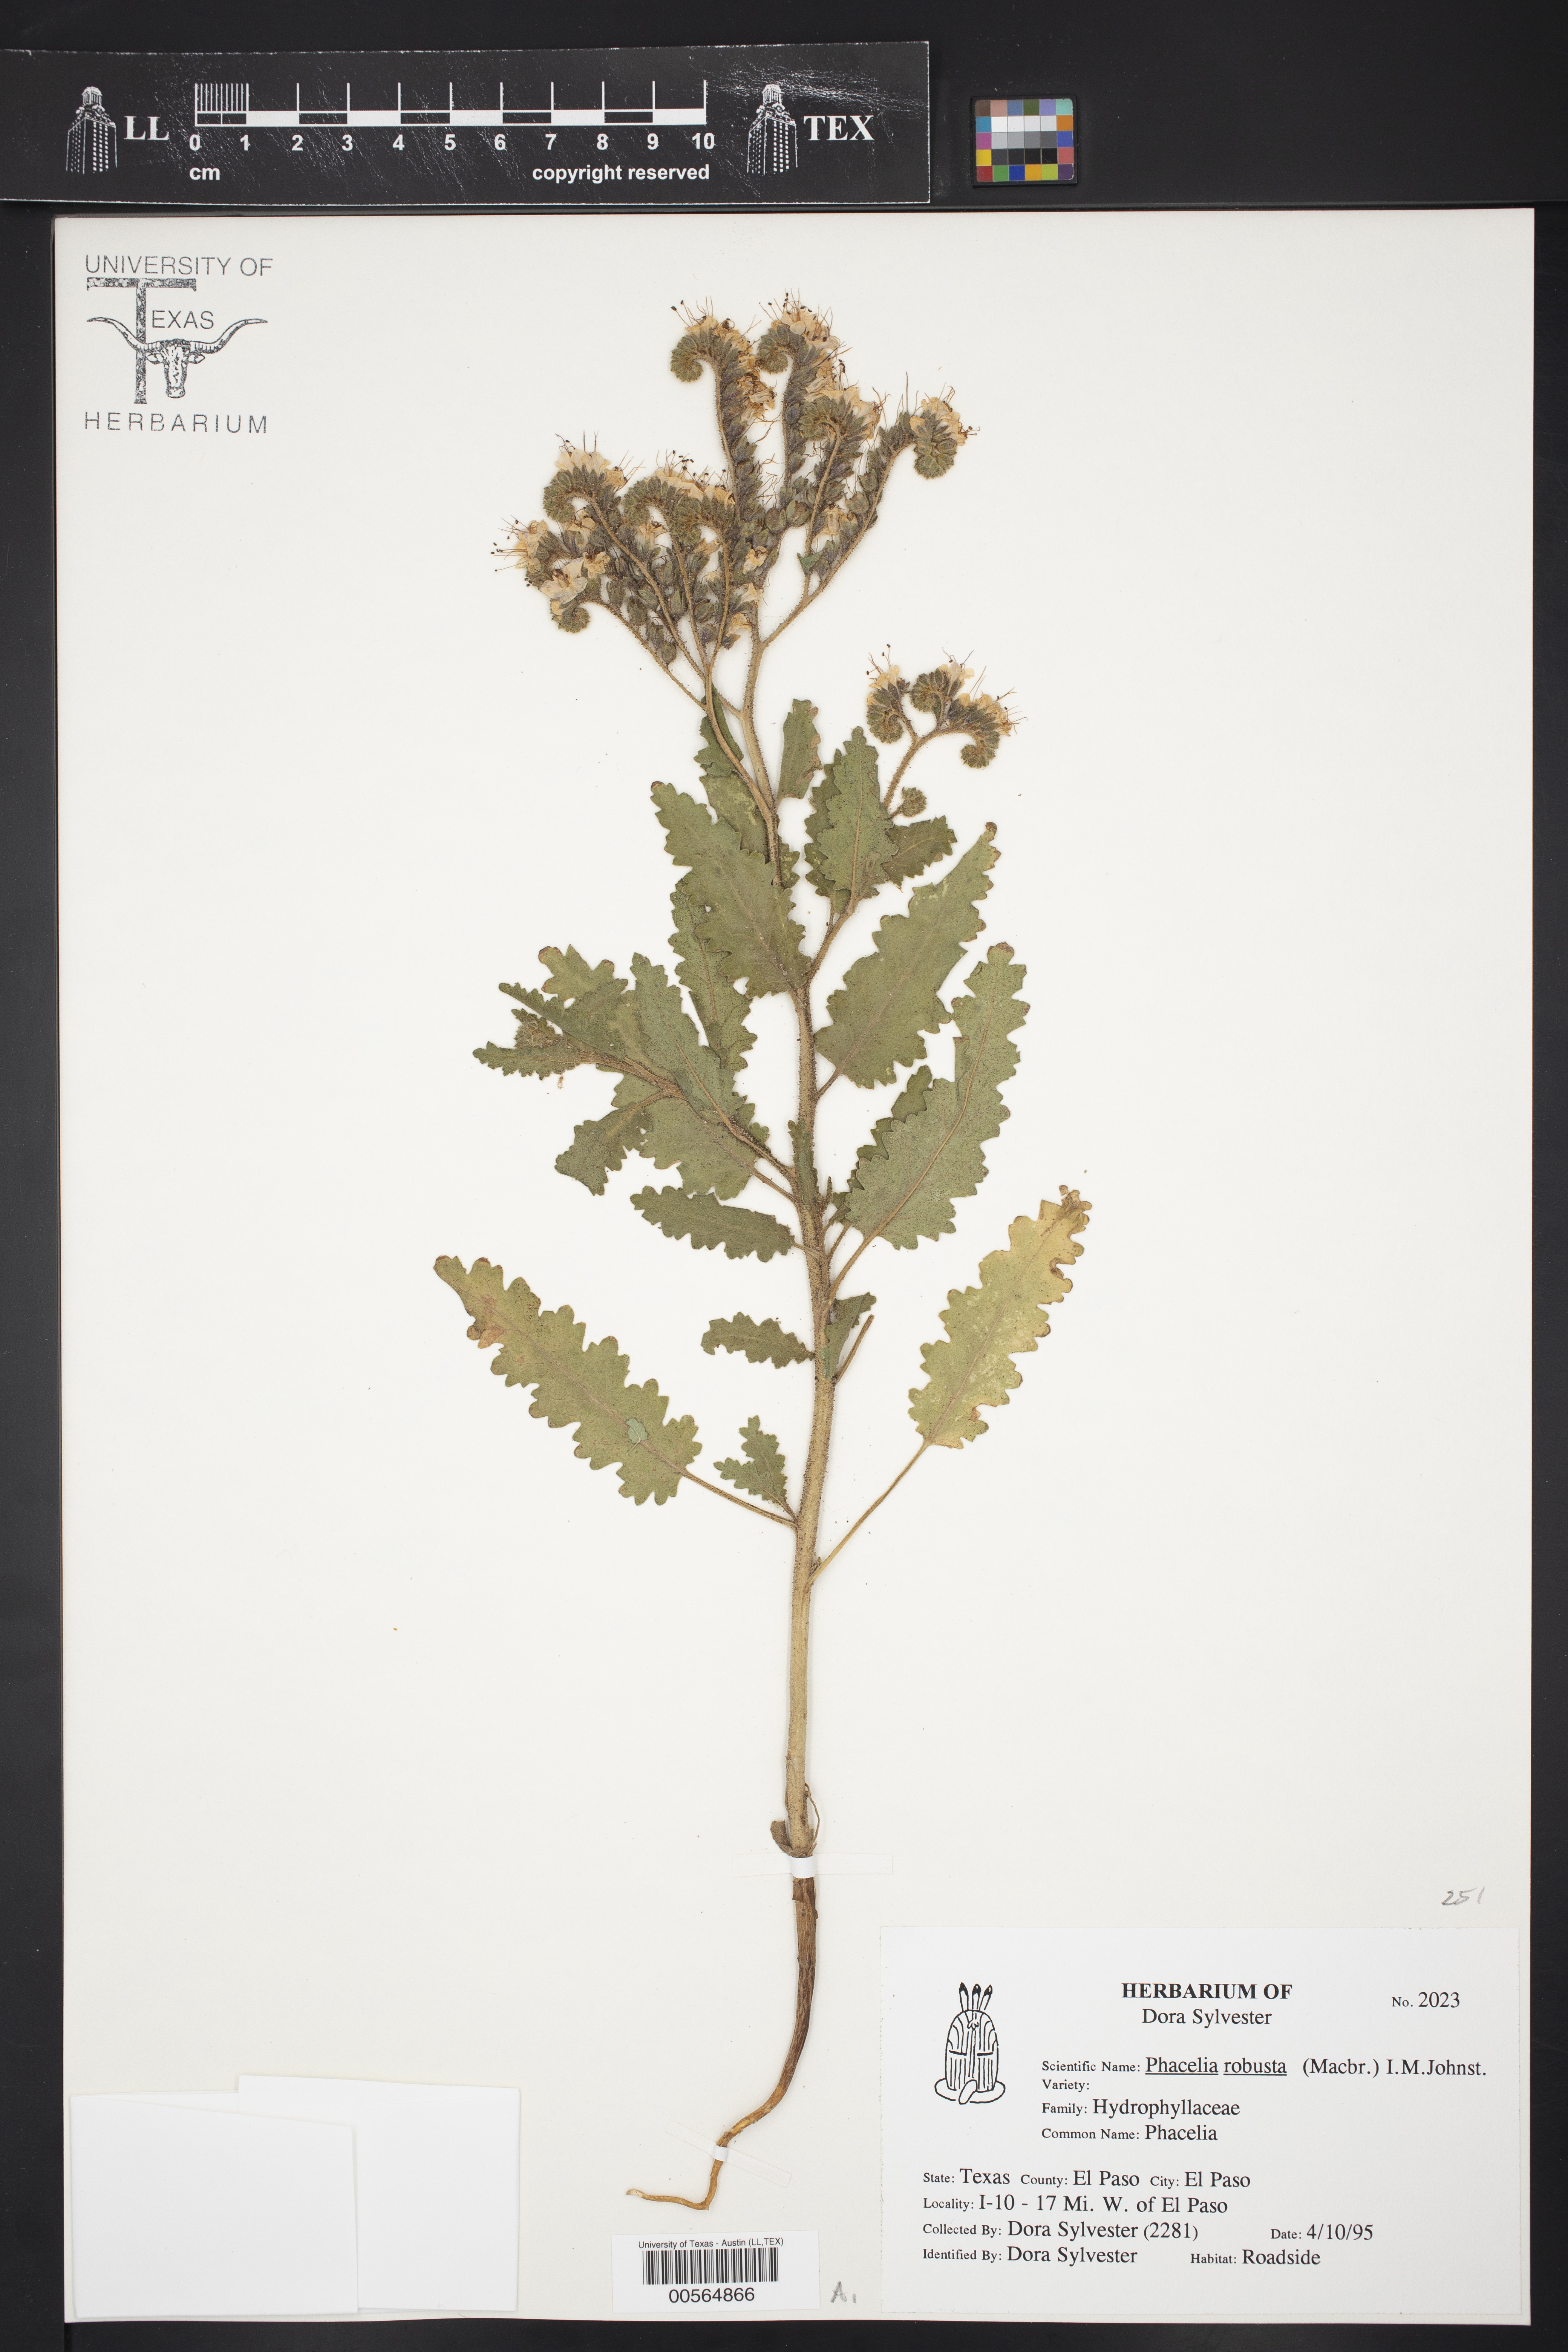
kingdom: Plantae
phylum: Tracheophyta
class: Magnoliopsida
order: Boraginales
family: Hydrophyllaceae
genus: Phacelia
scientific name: Phacelia robusta
